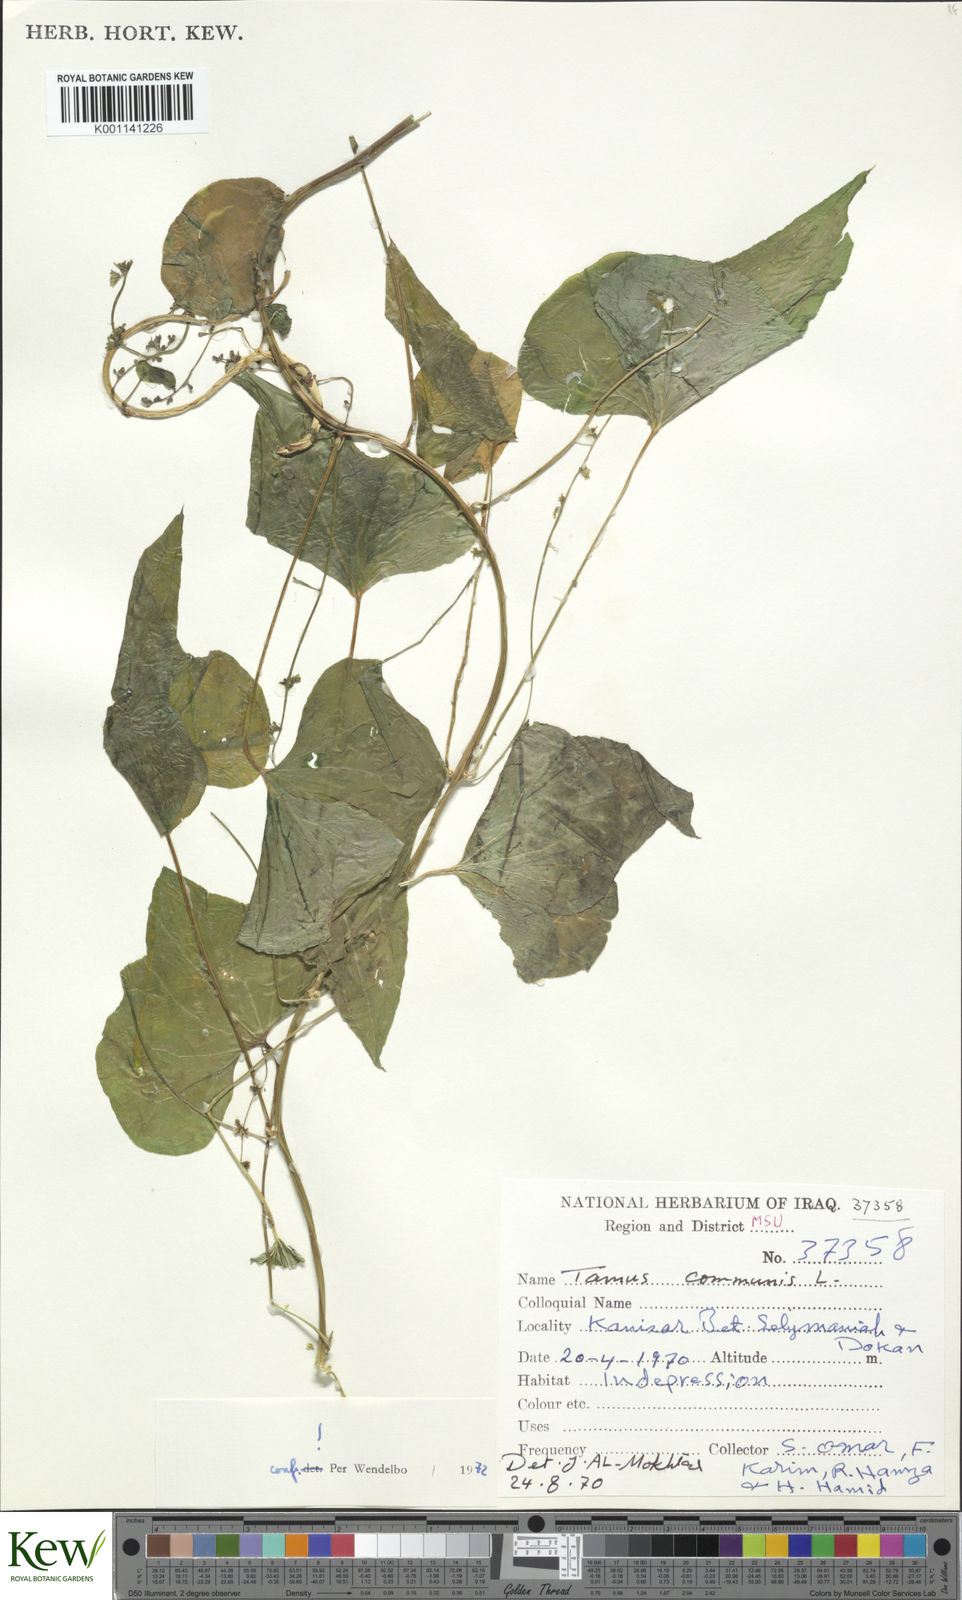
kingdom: Plantae
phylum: Tracheophyta
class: Liliopsida
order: Dioscoreales
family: Dioscoreaceae
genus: Dioscorea
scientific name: Dioscorea communis
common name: Black-bindweed
